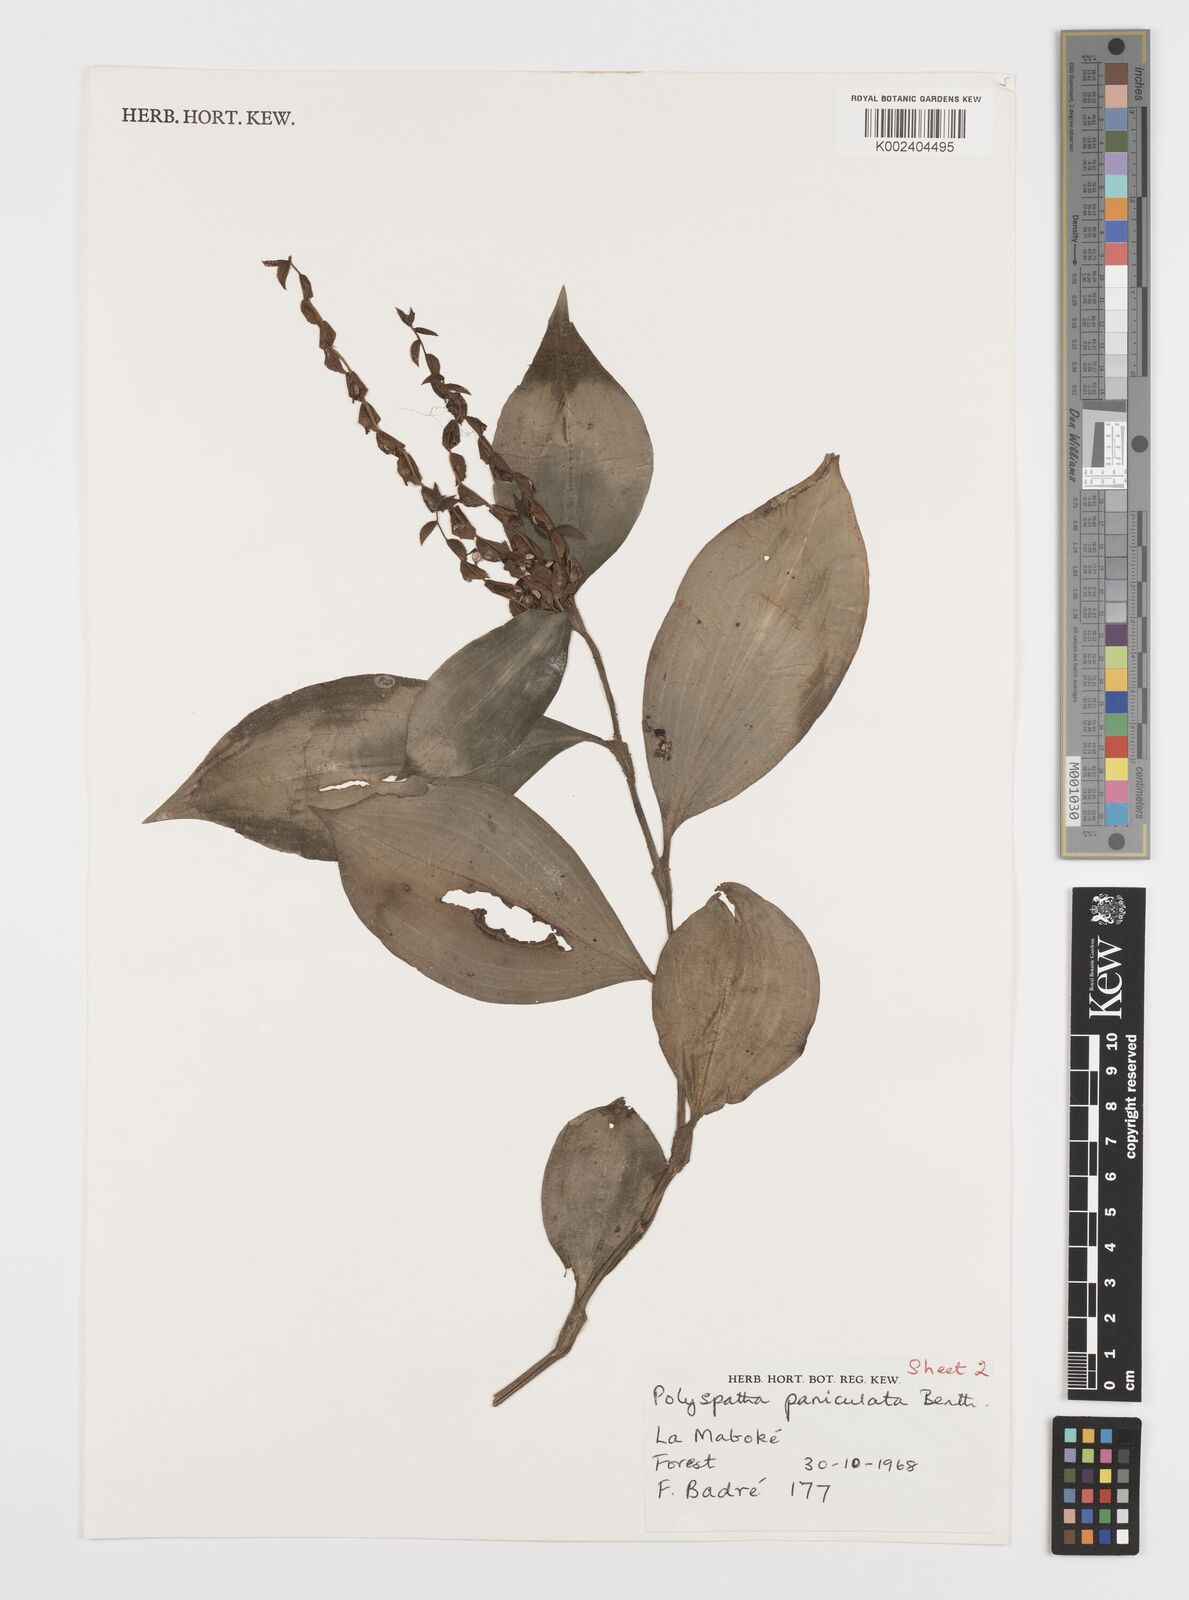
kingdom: Plantae
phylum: Tracheophyta
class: Liliopsida
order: Commelinales
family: Commelinaceae
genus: Polyspatha
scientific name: Polyspatha paniculata
